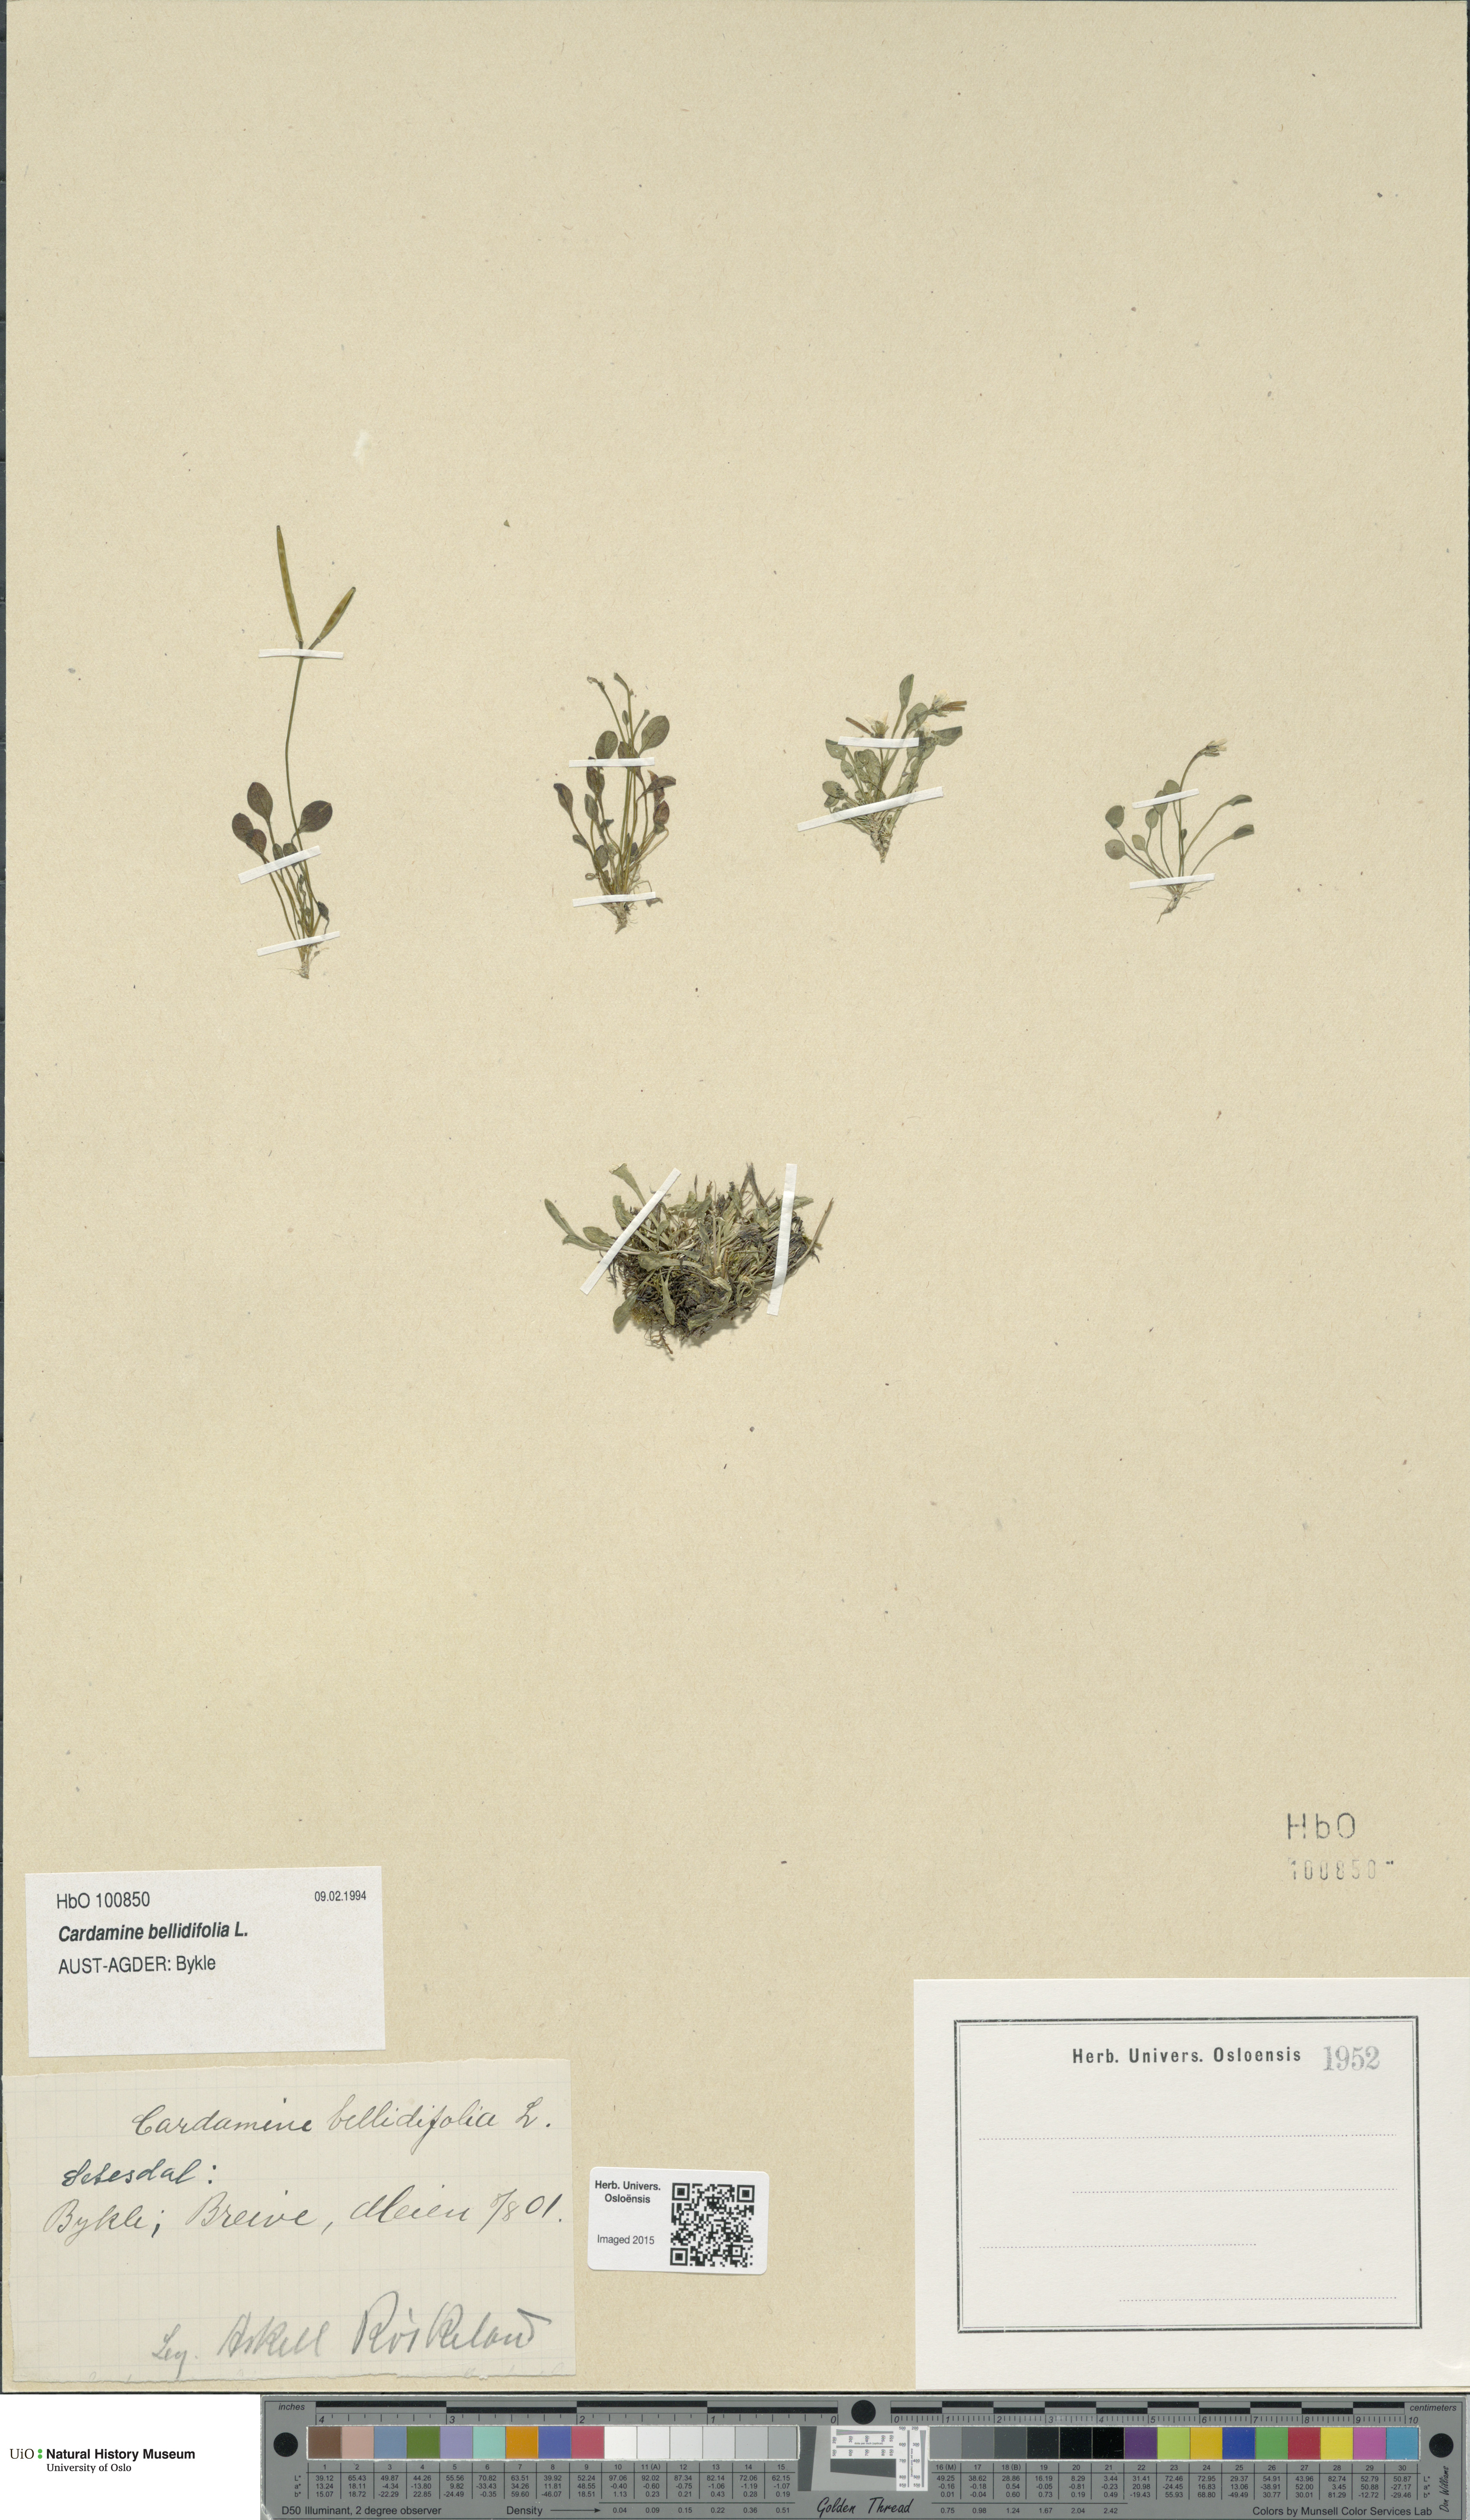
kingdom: Plantae
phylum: Tracheophyta
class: Magnoliopsida
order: Brassicales
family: Brassicaceae
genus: Cardamine
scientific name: Cardamine bellidifolia
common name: Alpine bittercress
